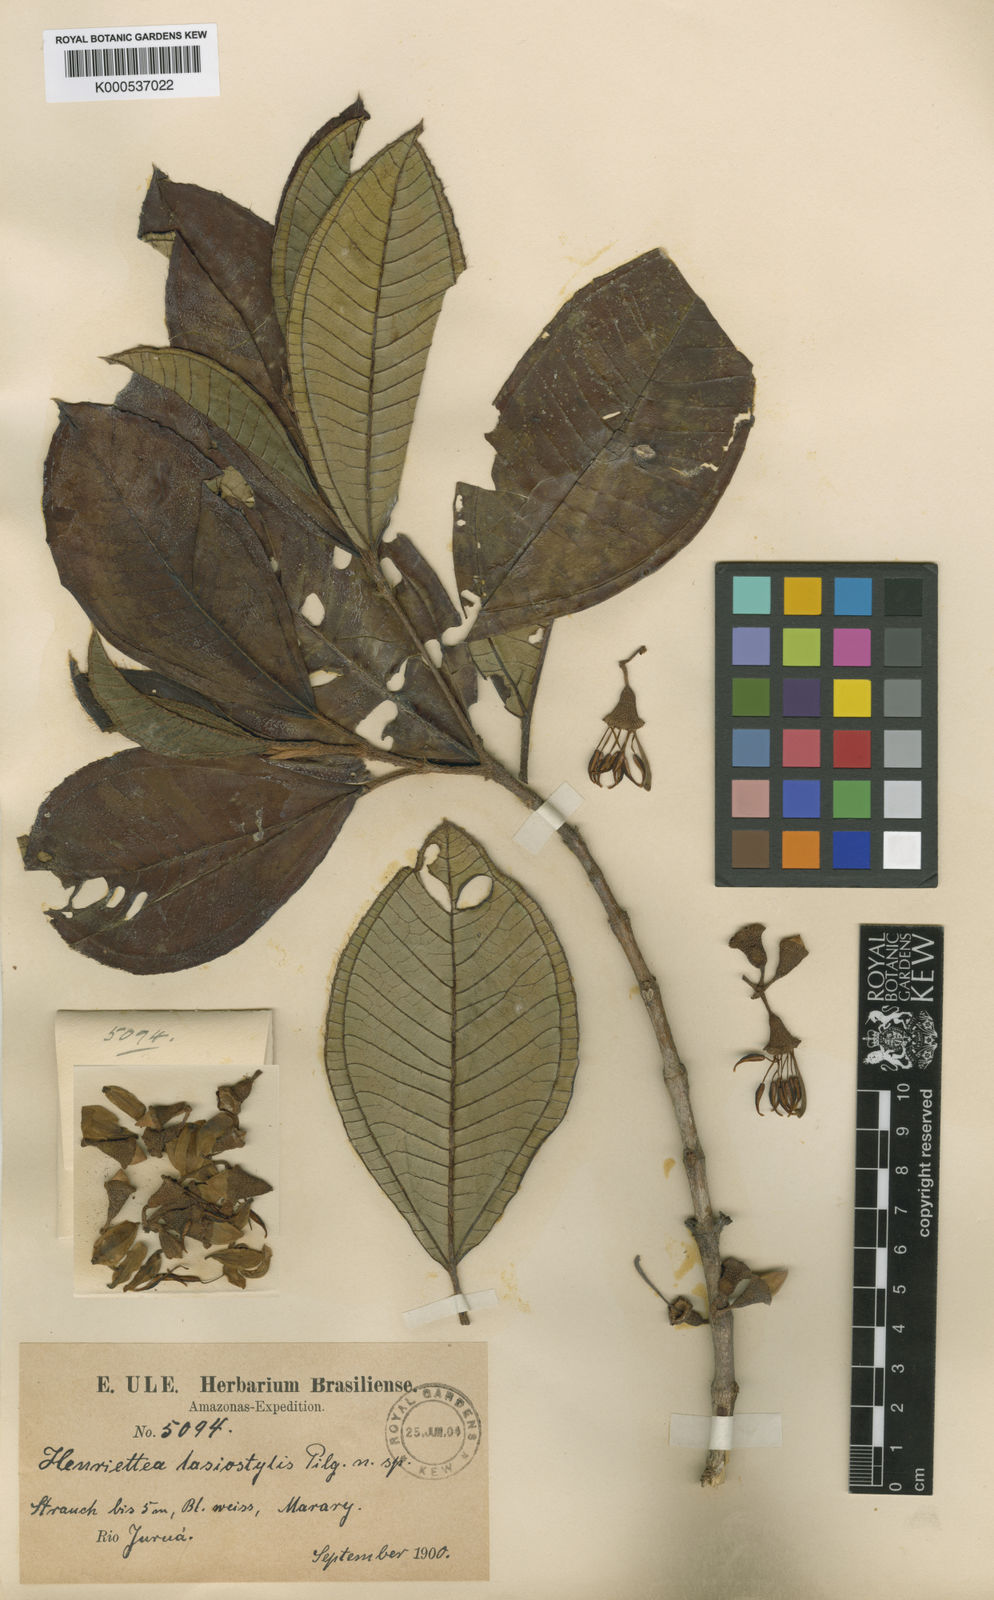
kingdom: Plantae
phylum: Tracheophyta
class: Magnoliopsida
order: Myrtales
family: Melastomataceae
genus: Henriettea
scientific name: Henriettea lasiostylis
